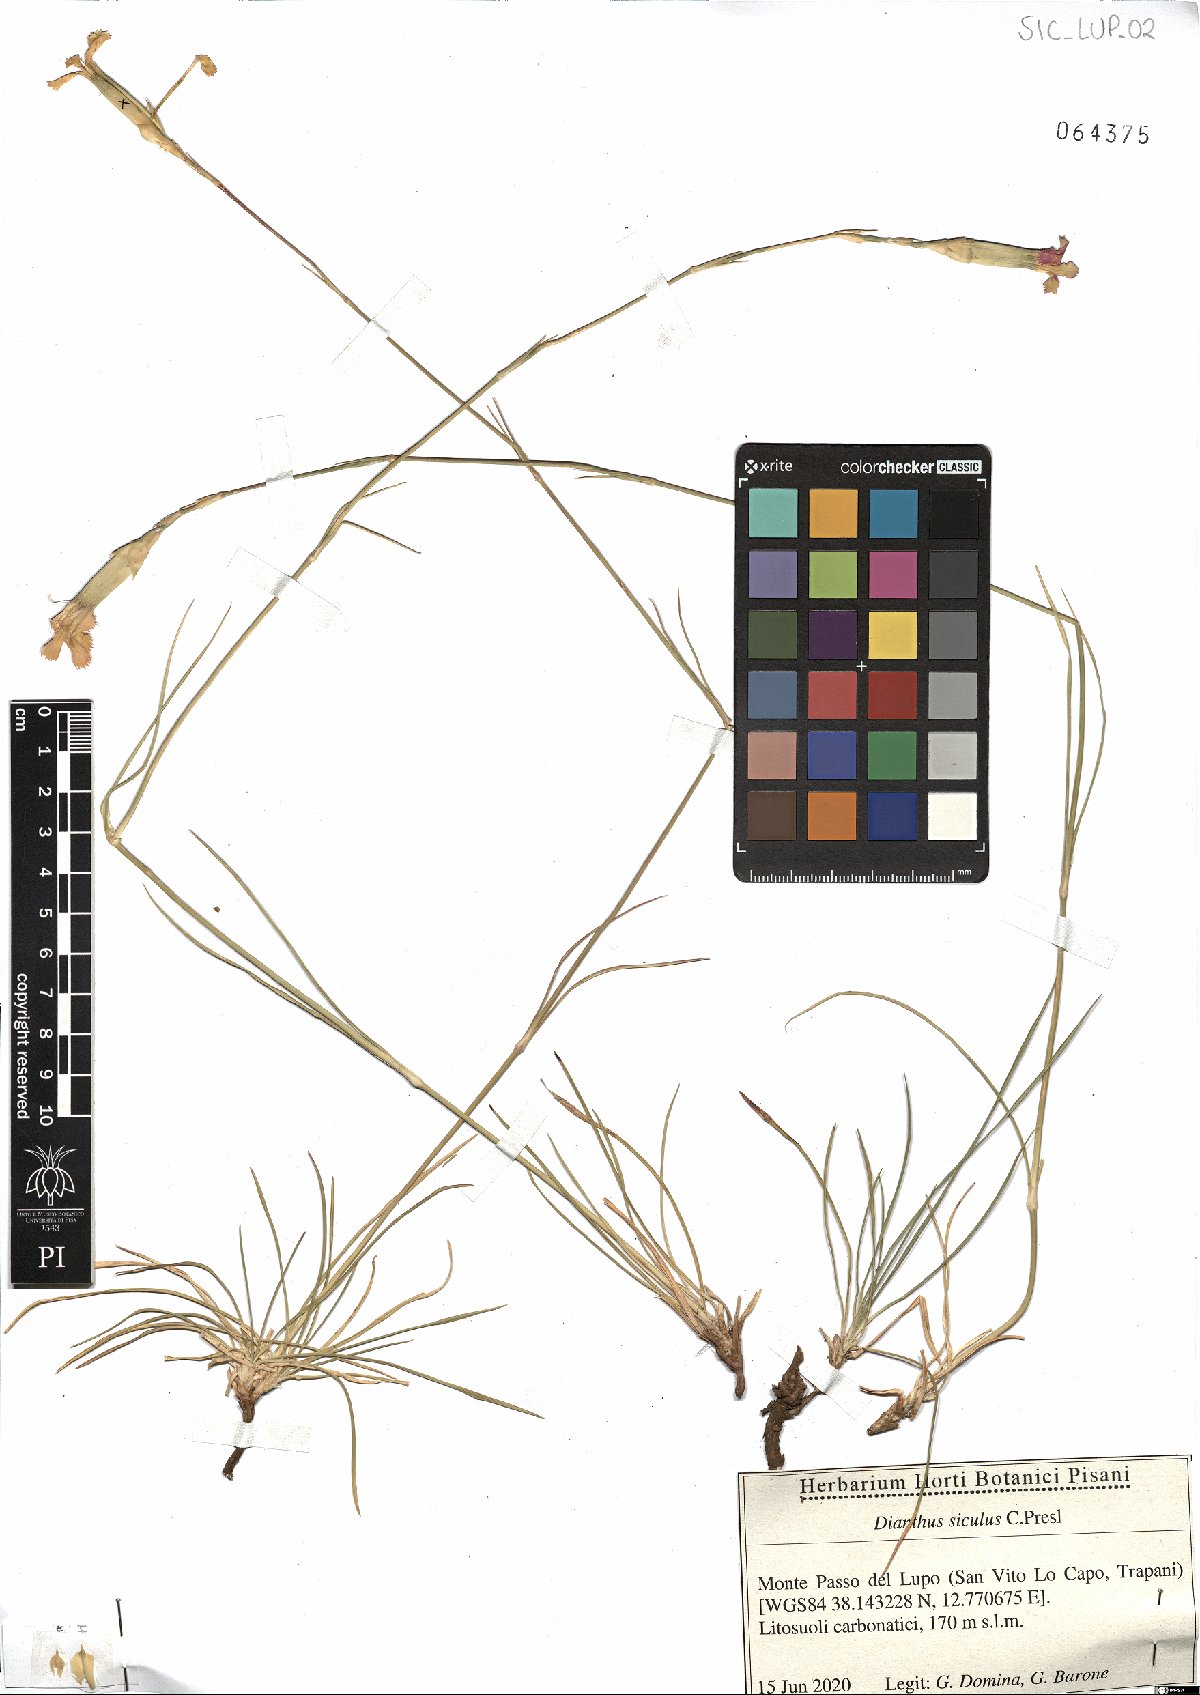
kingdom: Plantae
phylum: Tracheophyta
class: Magnoliopsida
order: Caryophyllales
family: Caryophyllaceae
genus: Dianthus
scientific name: Dianthus siculus
